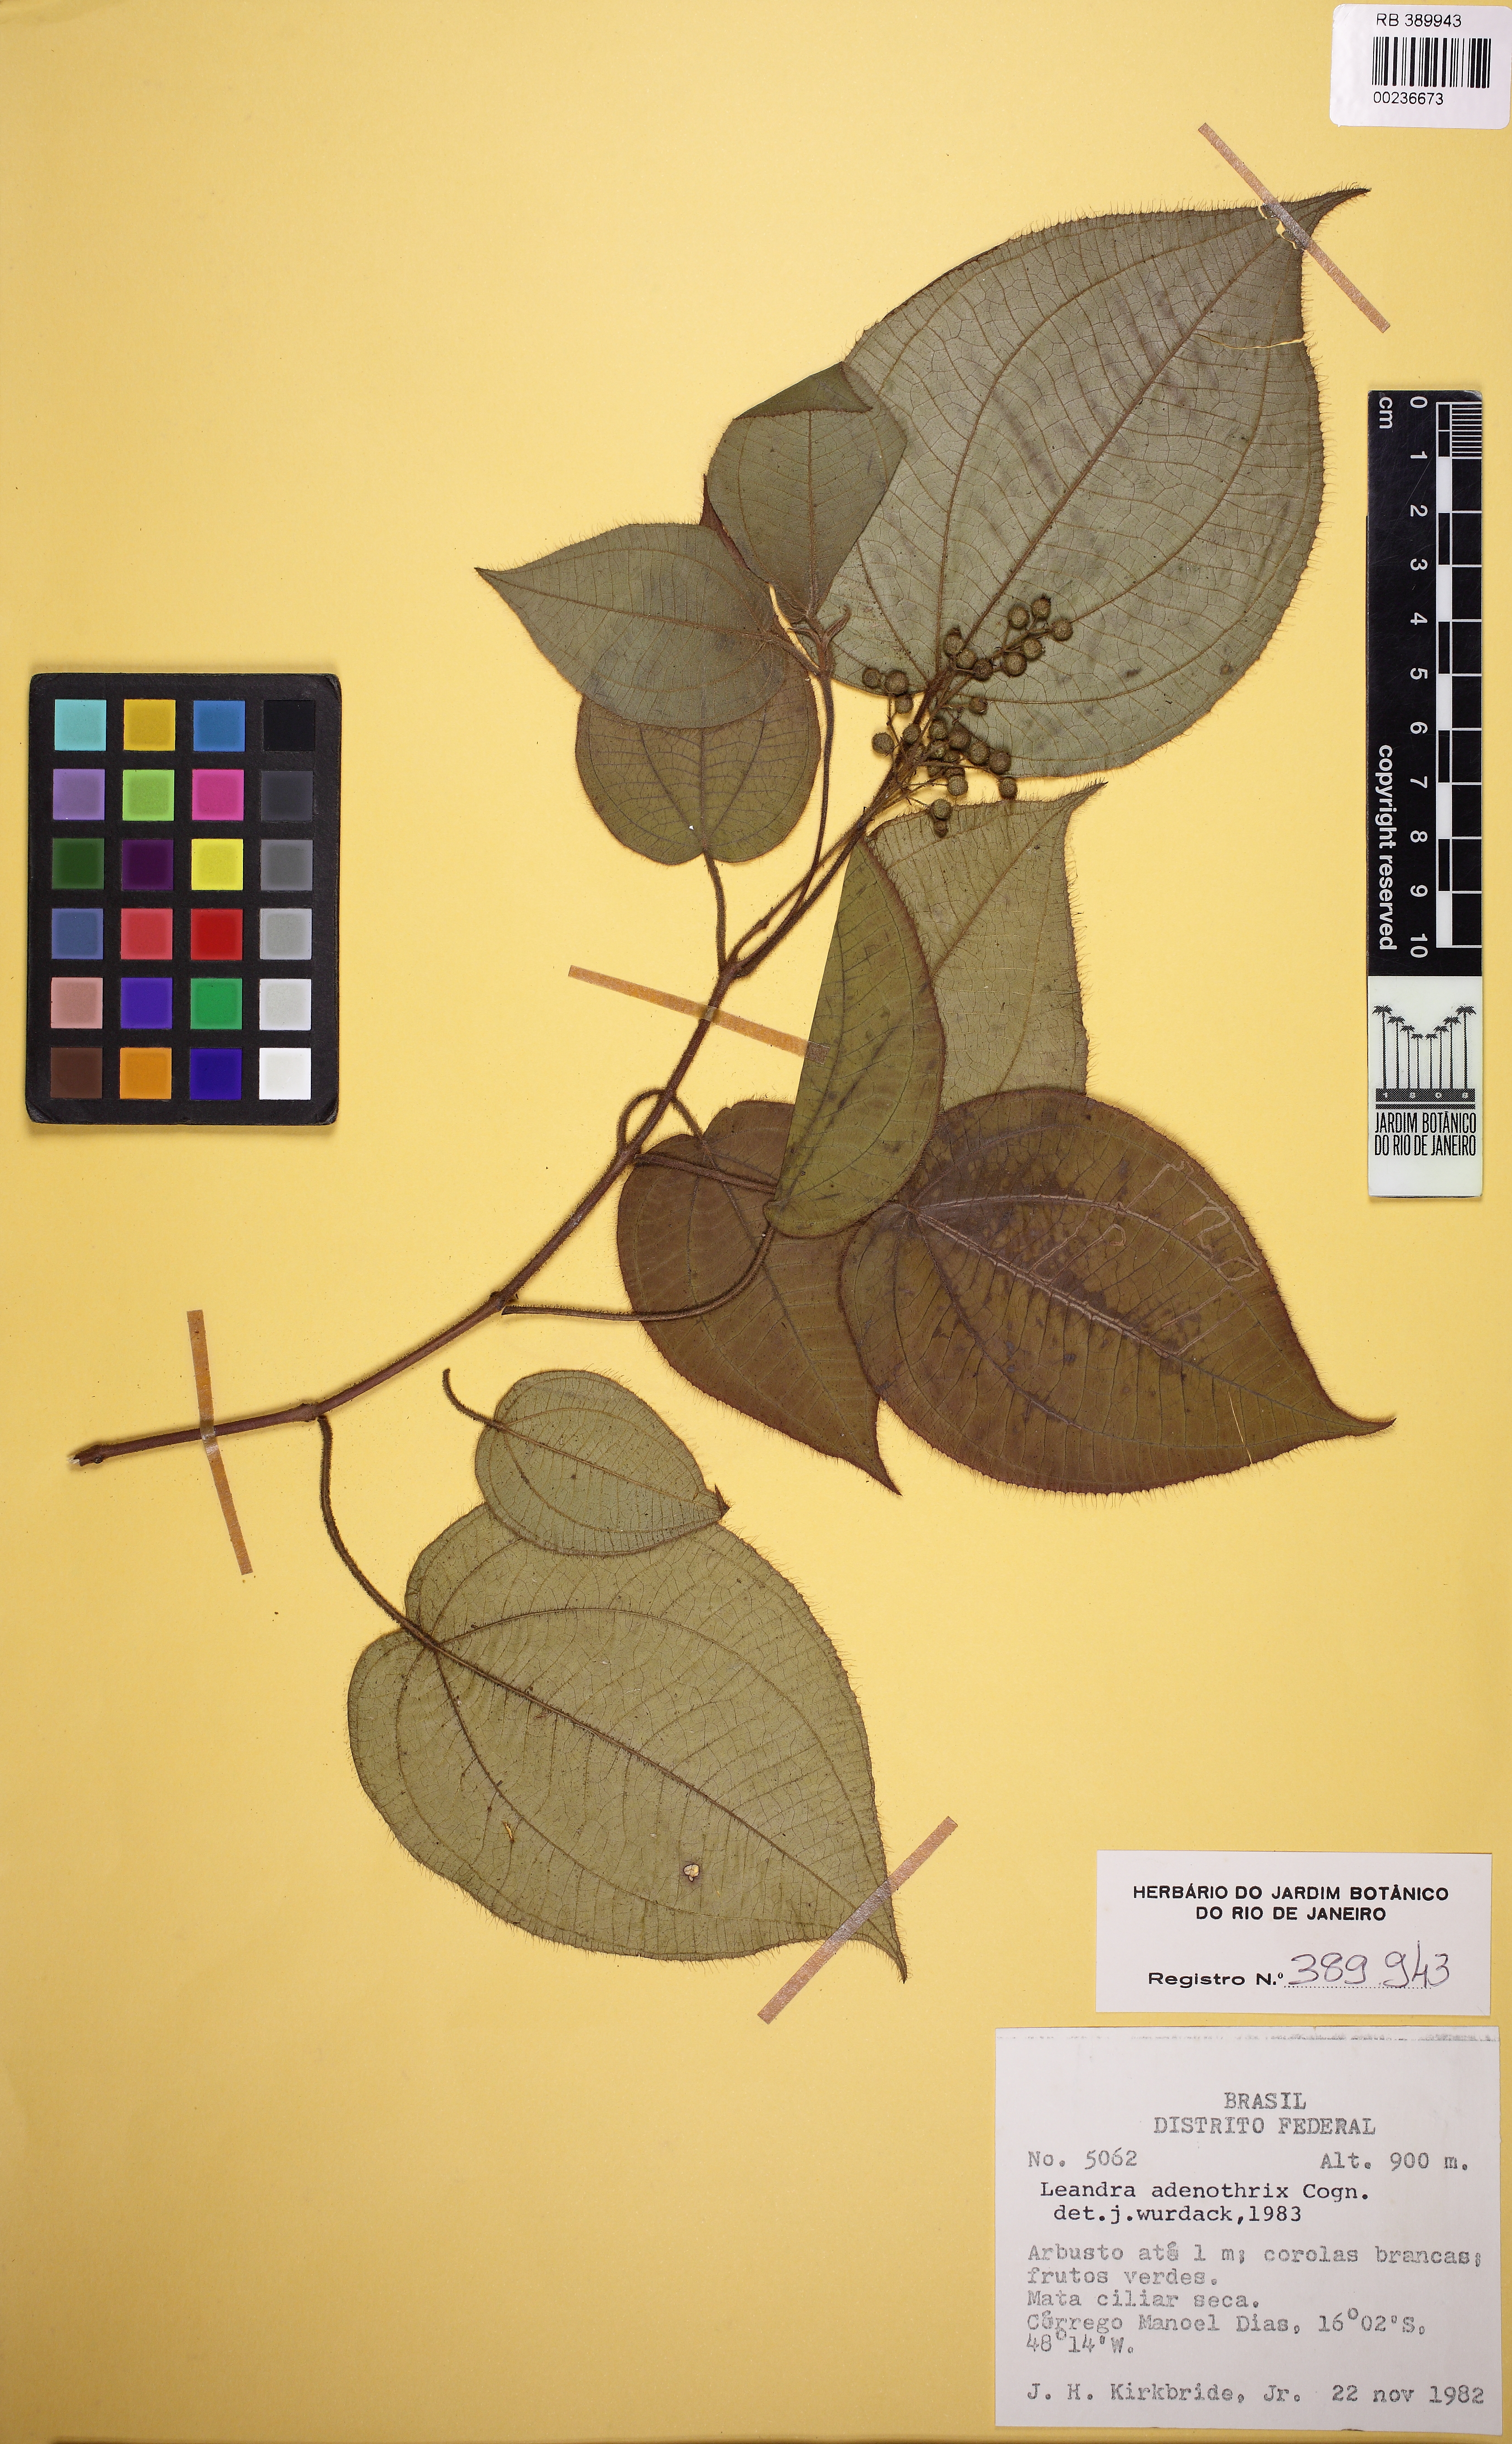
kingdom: Plantae
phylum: Tracheophyta
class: Magnoliopsida
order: Myrtales
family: Melastomataceae
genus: Miconia
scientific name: Miconia adenothrix
